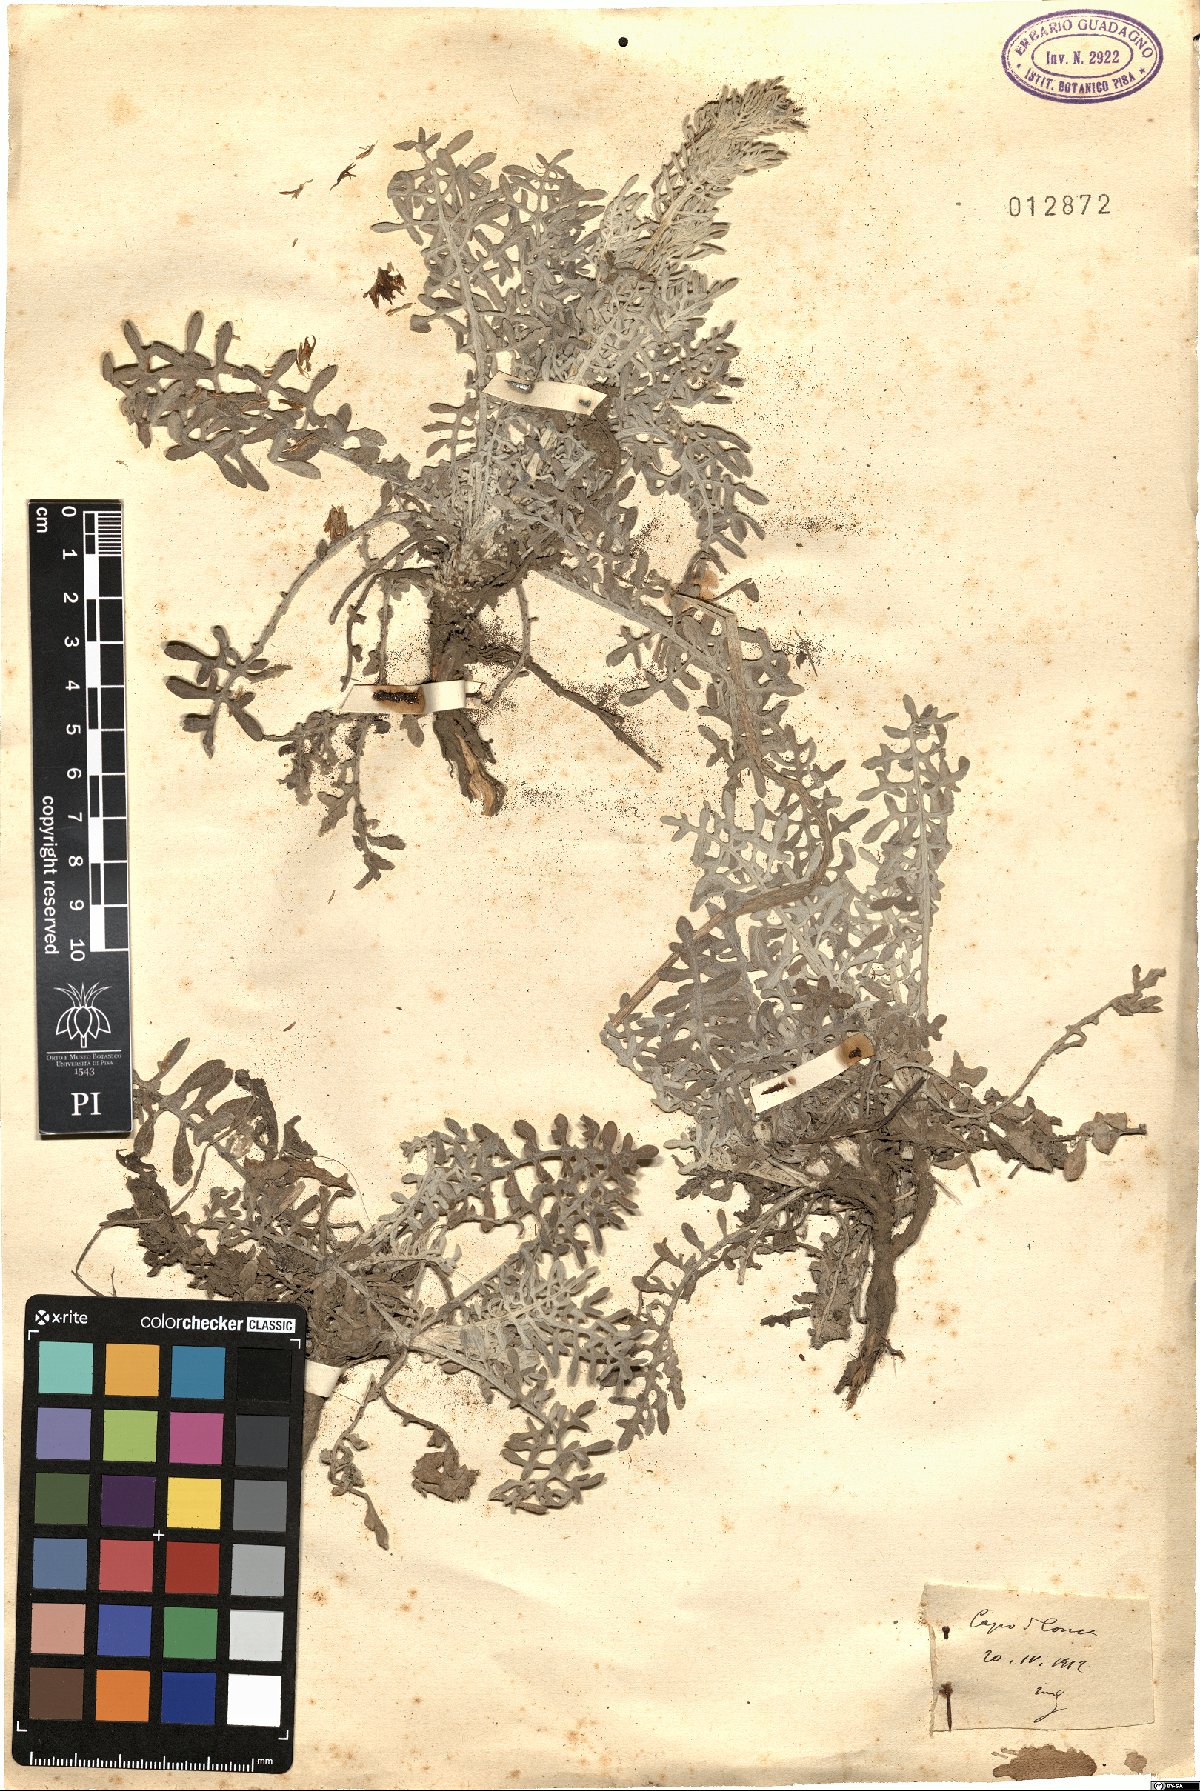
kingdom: Plantae
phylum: Tracheophyta
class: Magnoliopsida
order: Asterales
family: Asteraceae
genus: Centaurea
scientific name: Centaurea
